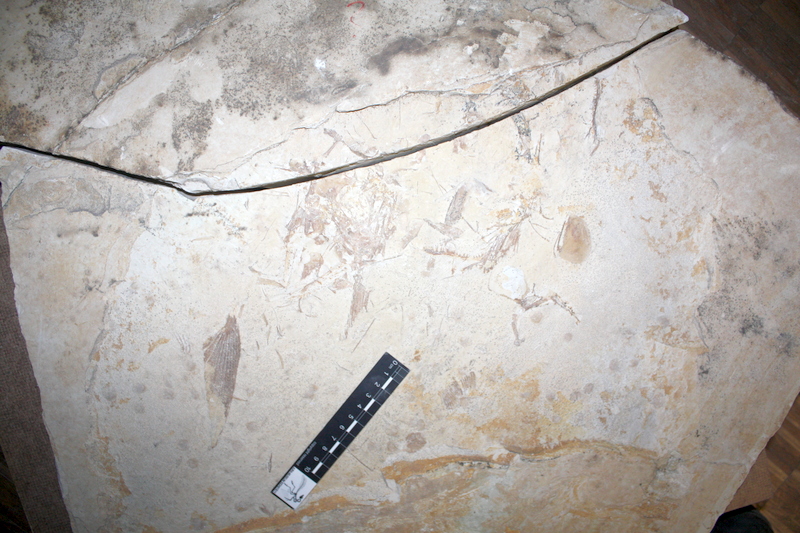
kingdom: Animalia
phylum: Chordata
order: Amiiformes
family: Caturidae
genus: Caturus
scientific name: Caturus
